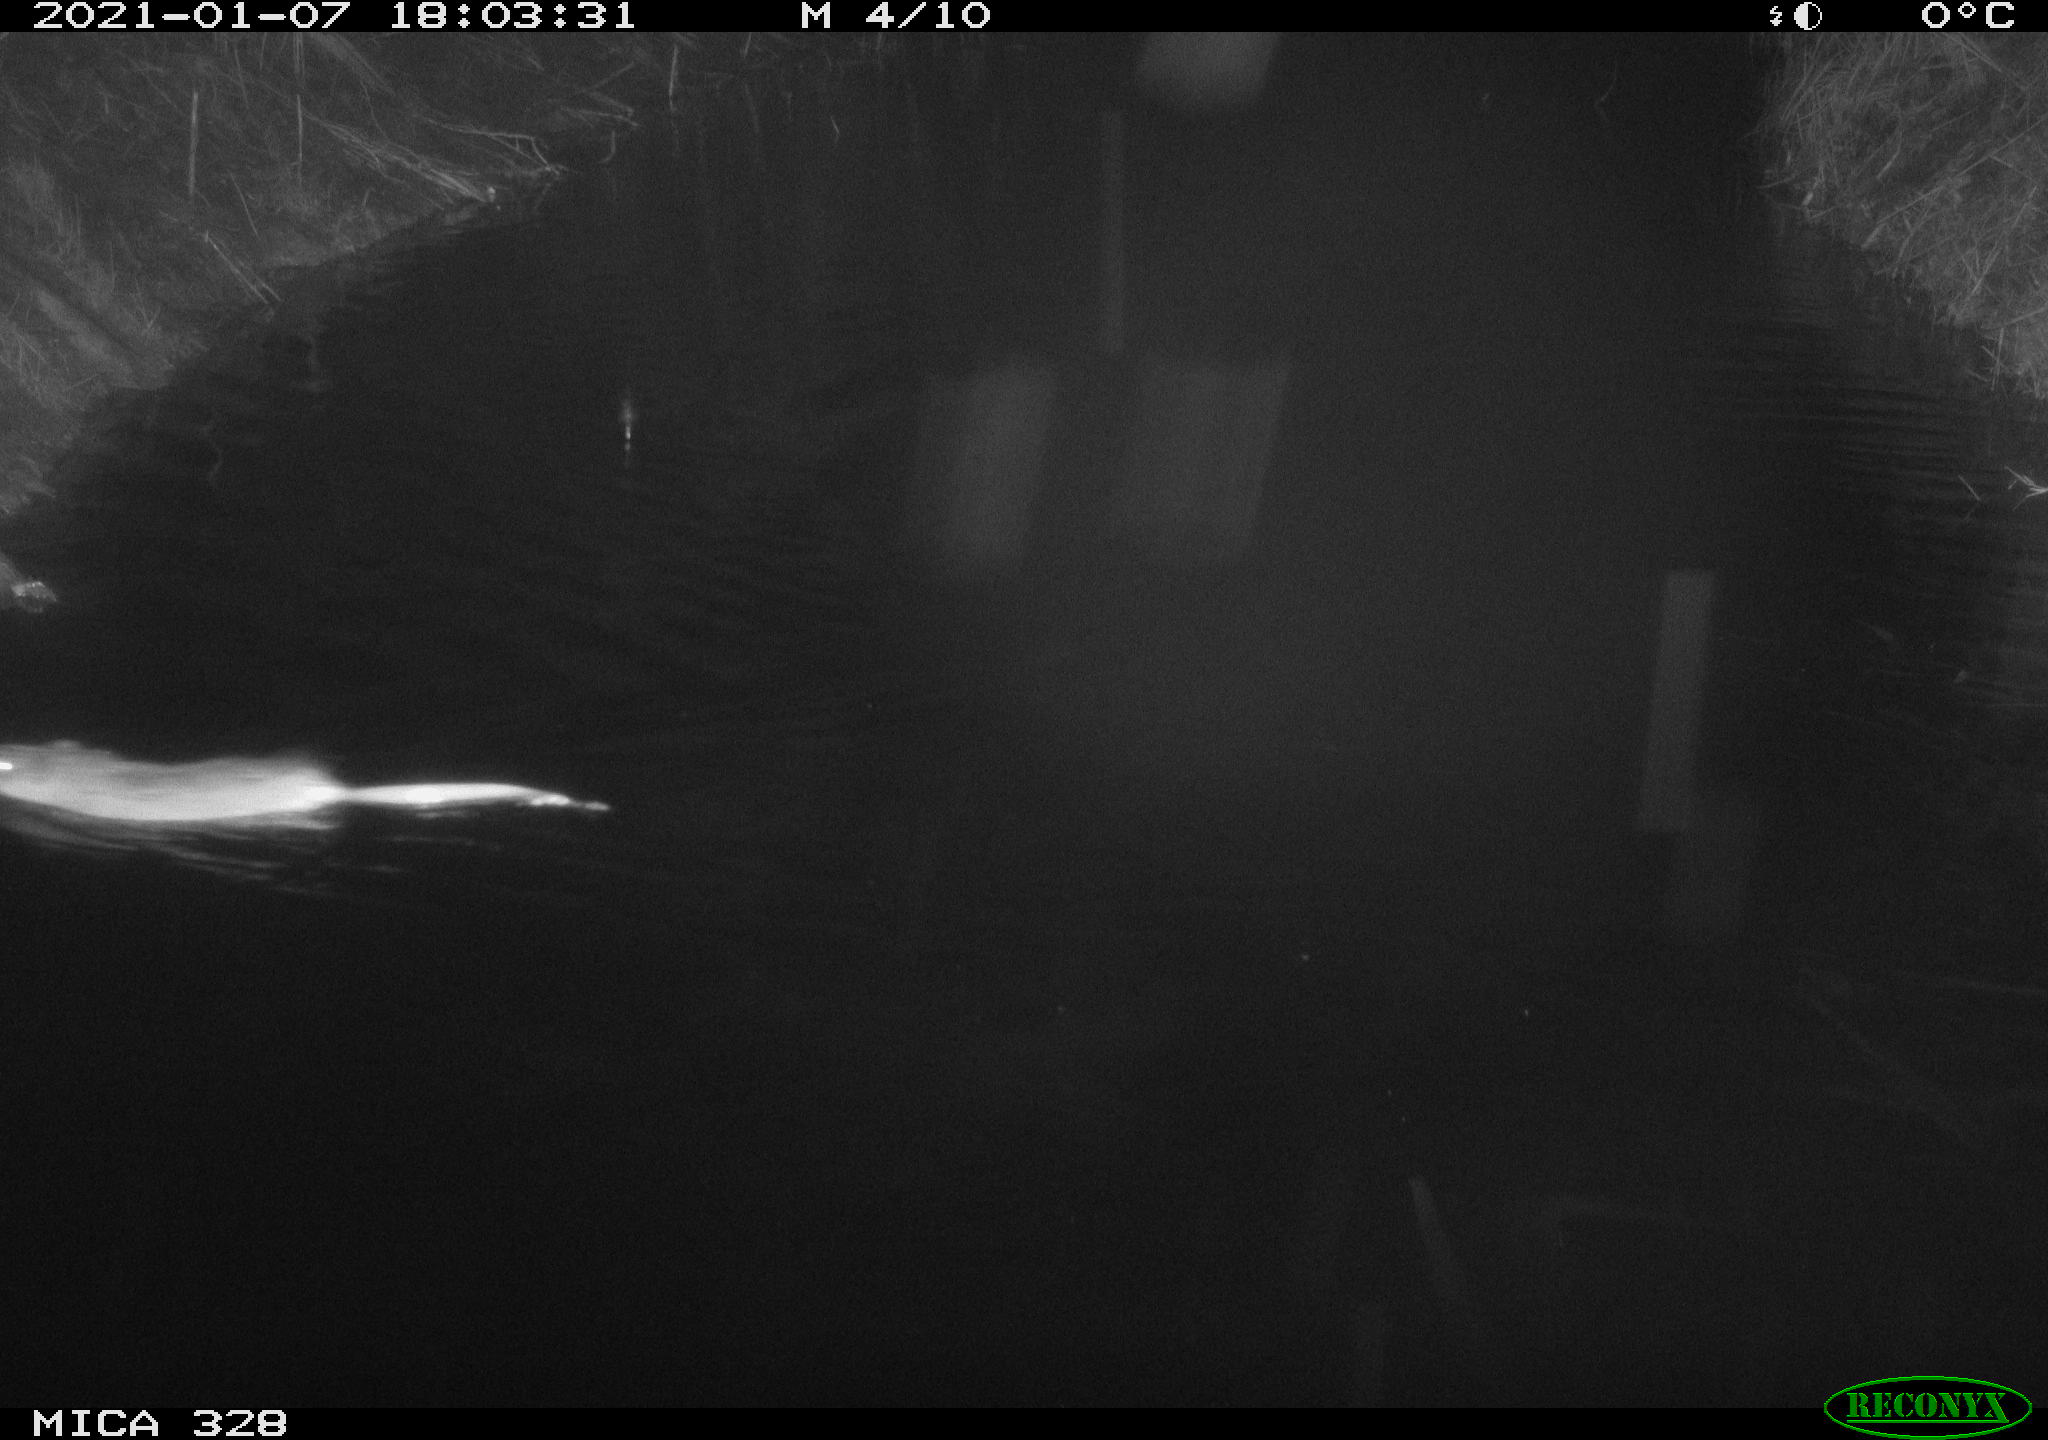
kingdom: Animalia
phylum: Chordata
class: Mammalia
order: Rodentia
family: Cricetidae
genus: Ondatra
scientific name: Ondatra zibethicus
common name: Muskrat
